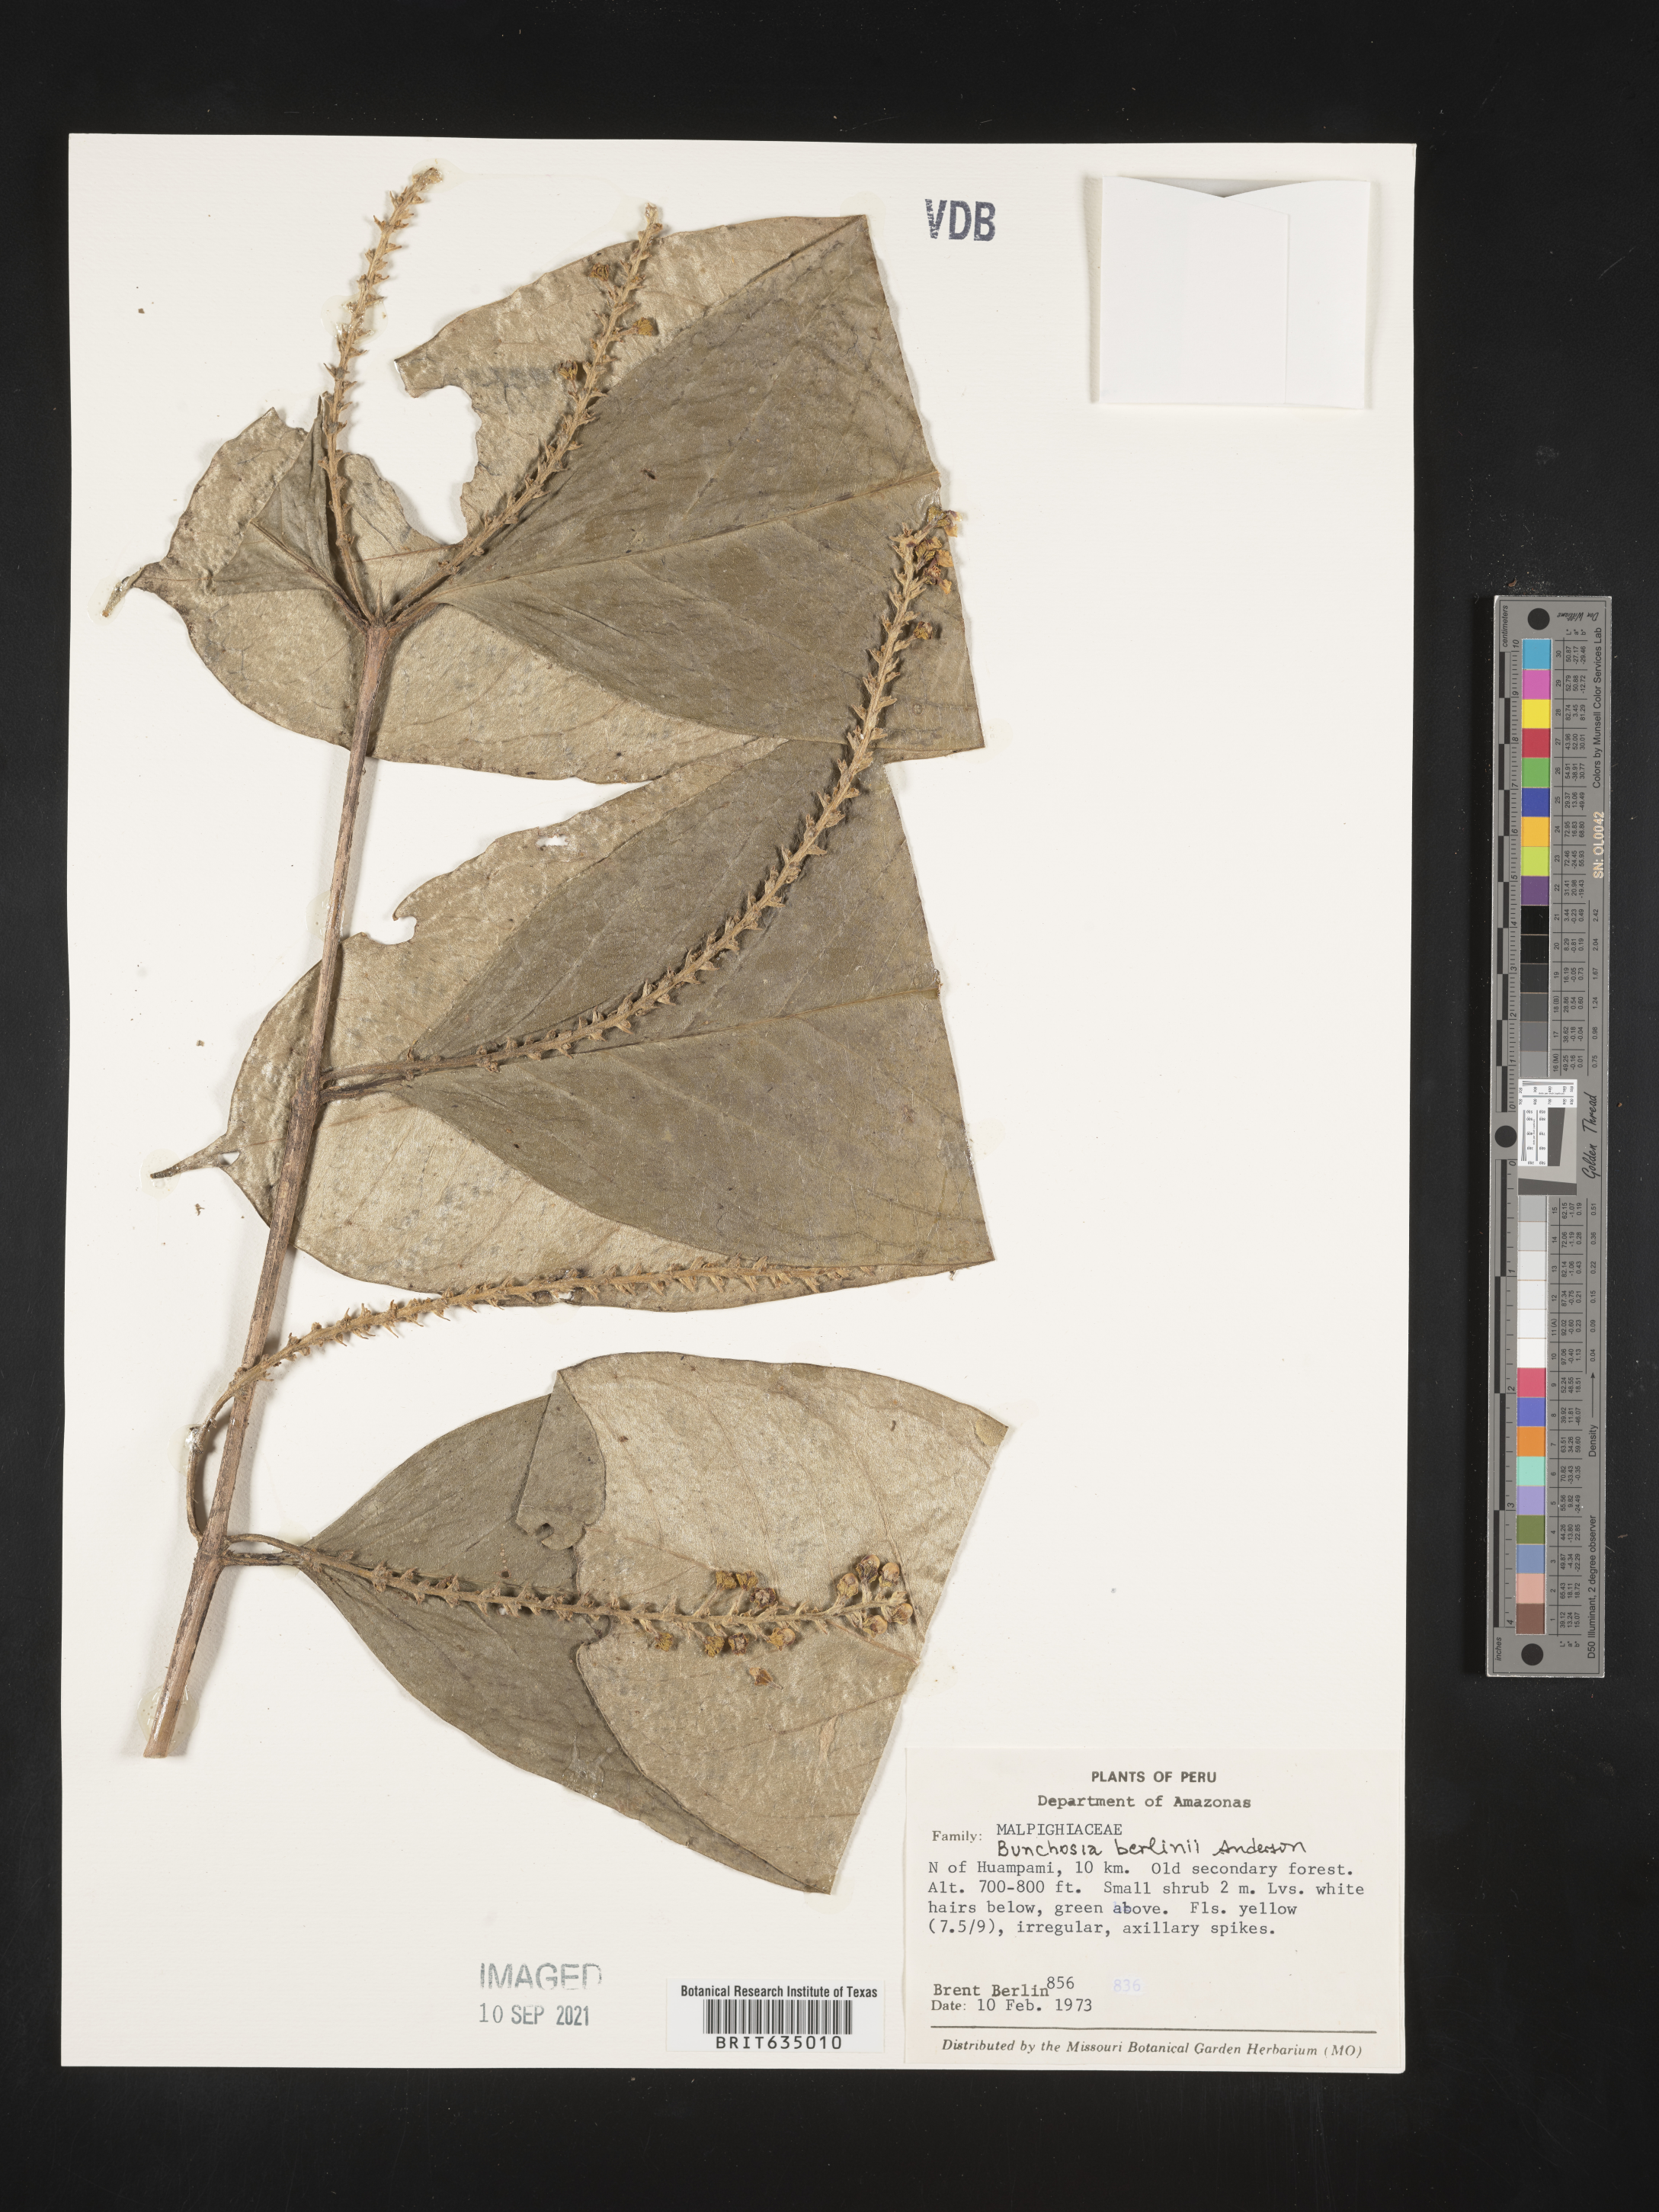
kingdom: Plantae
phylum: Tracheophyta
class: Magnoliopsida
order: Malpighiales
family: Malpighiaceae
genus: Bunchosia
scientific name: Bunchosia
